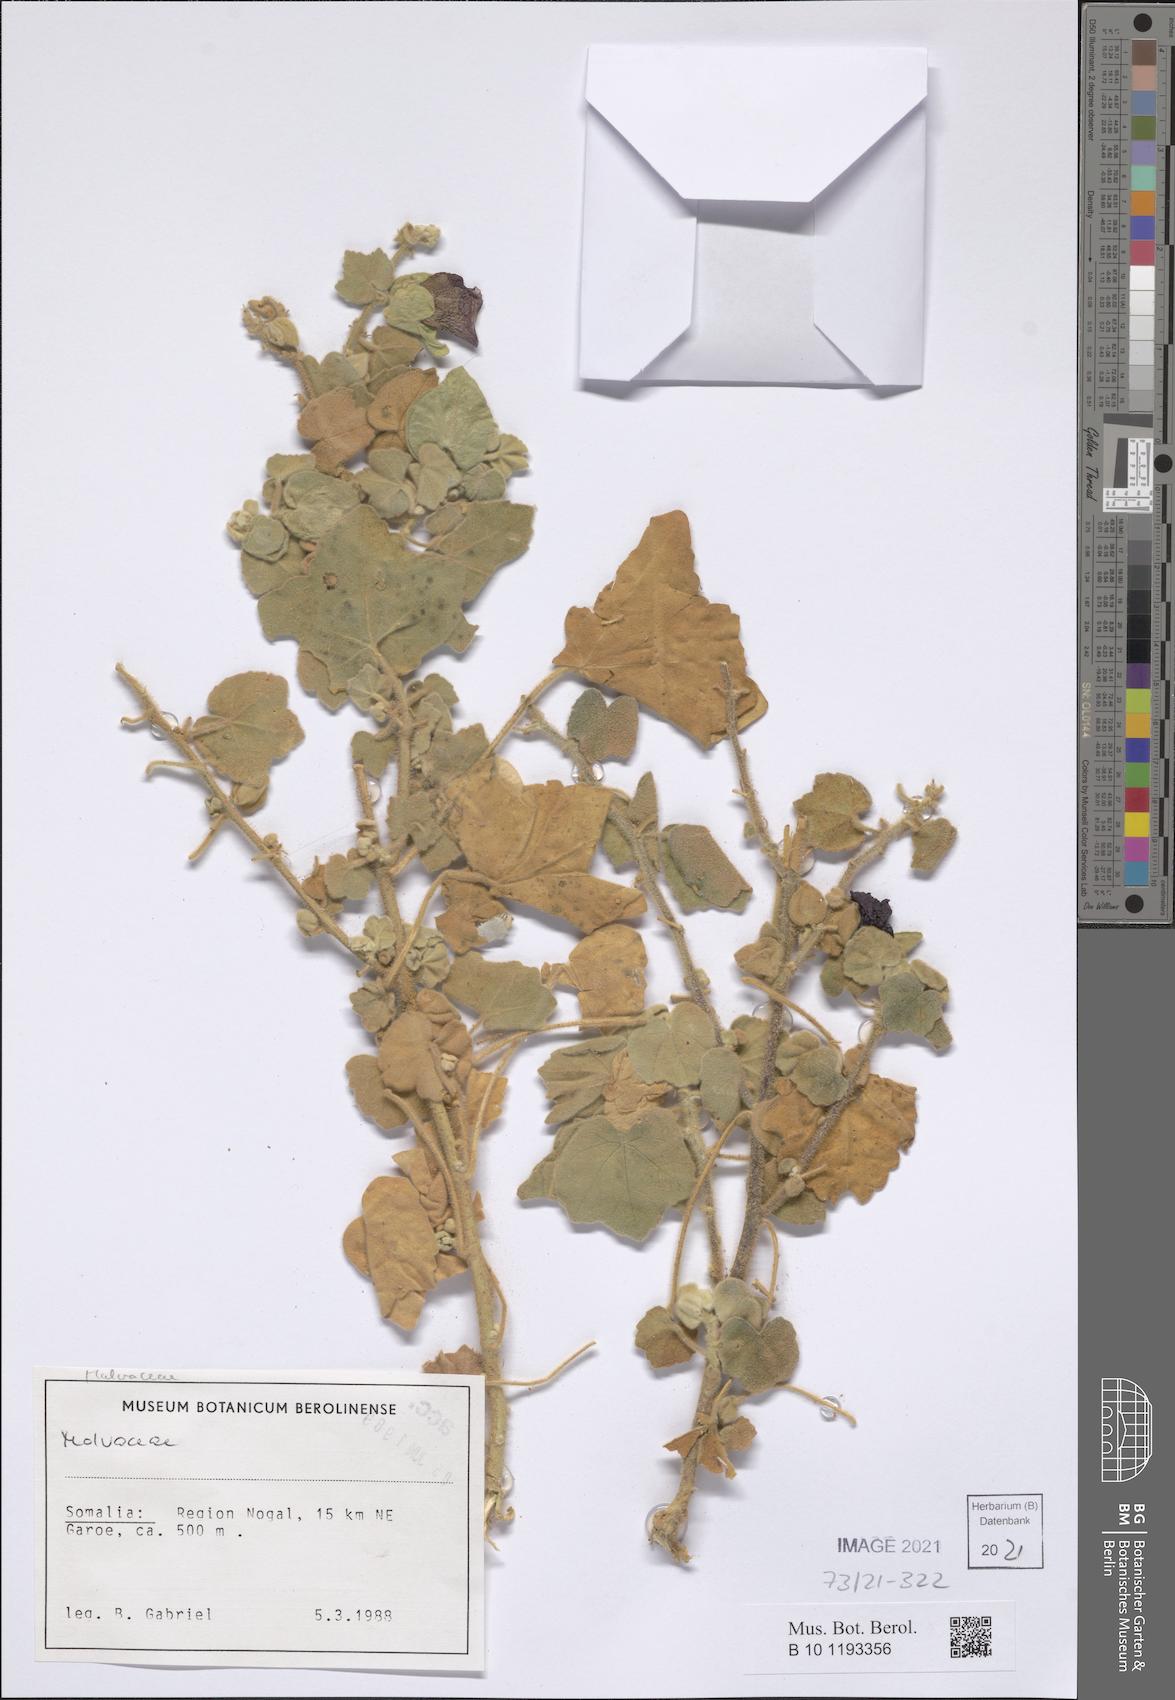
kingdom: Plantae
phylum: Tracheophyta
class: Magnoliopsida
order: Malvales
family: Malvaceae
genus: Senra
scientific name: Senra incana
